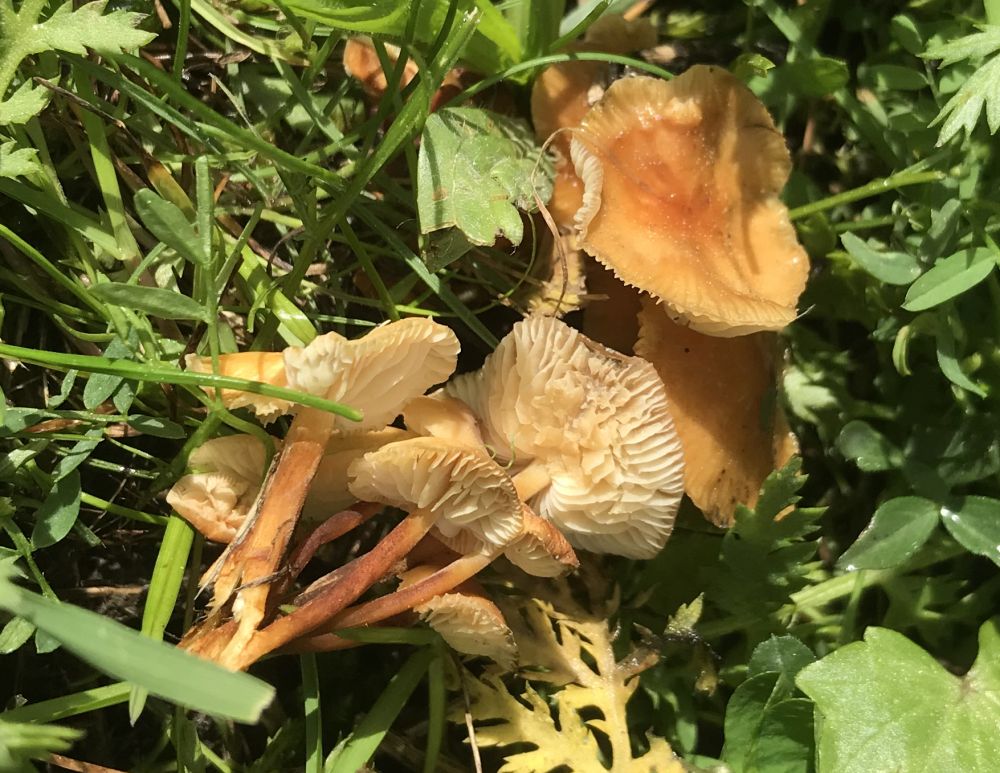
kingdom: Fungi
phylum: Basidiomycota
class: Agaricomycetes
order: Agaricales
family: Physalacriaceae
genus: Flammulina
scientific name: Flammulina
